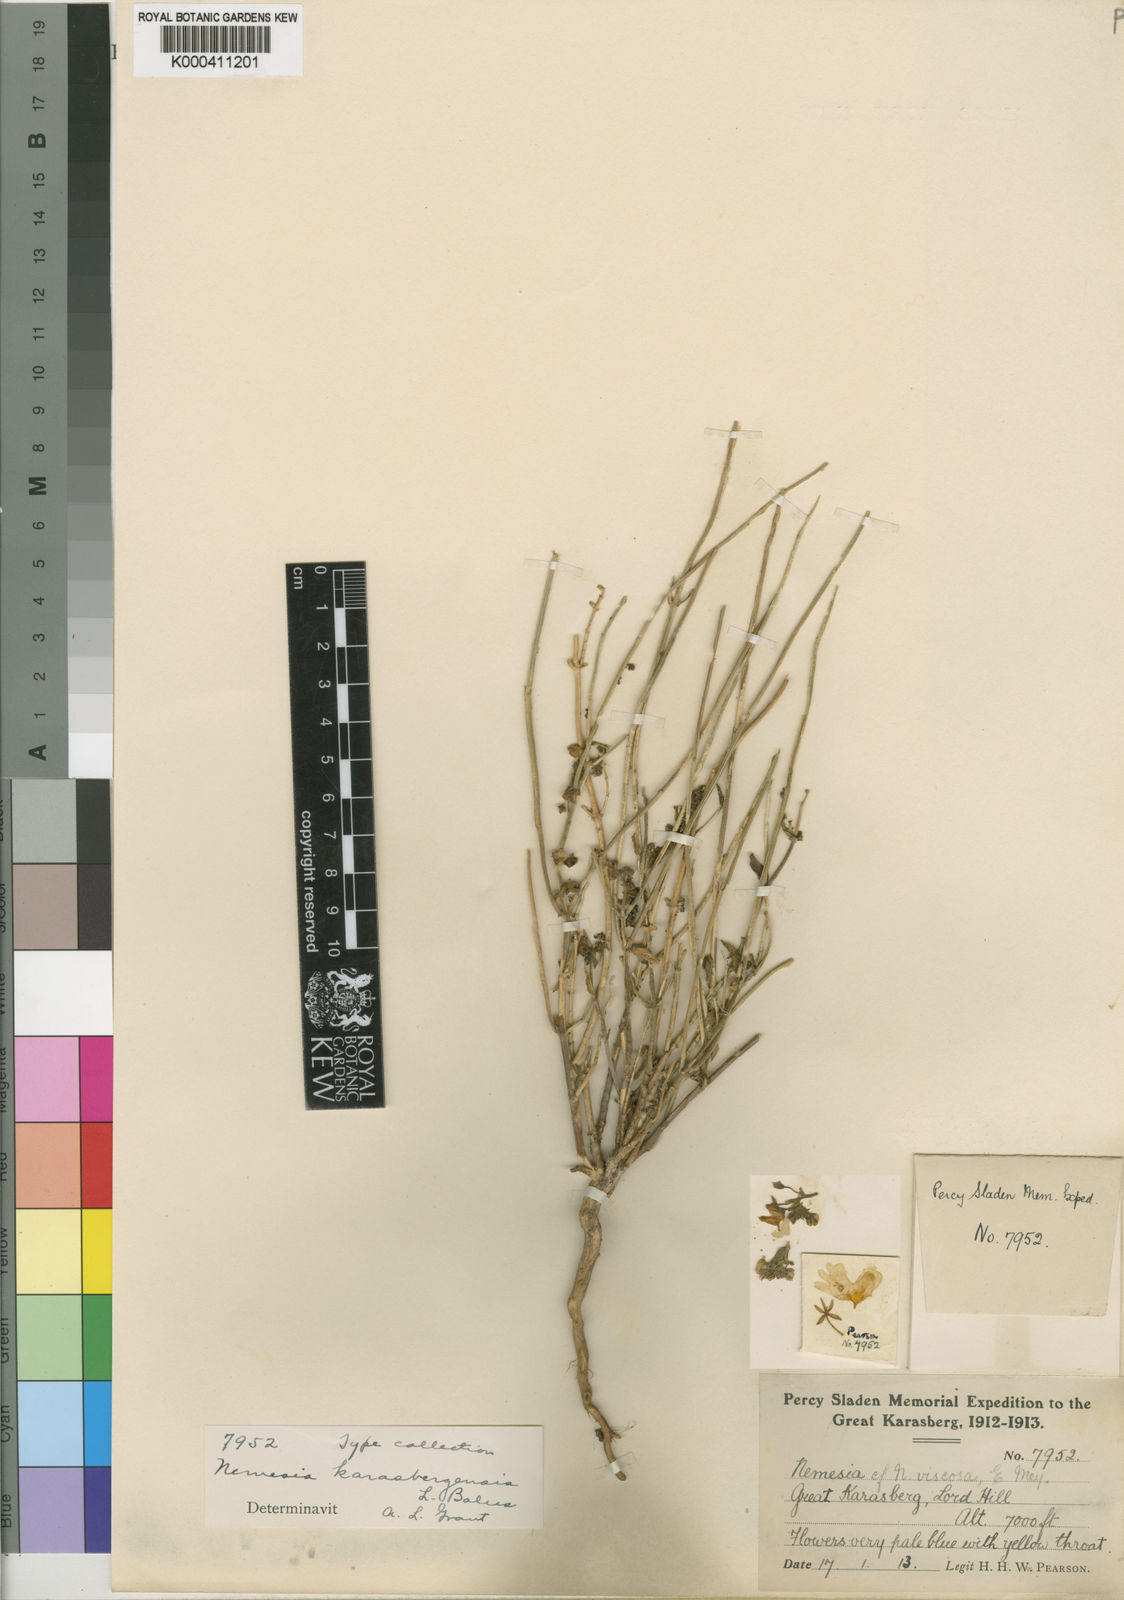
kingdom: Plantae
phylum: Tracheophyta
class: Magnoliopsida
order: Lamiales
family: Scrophulariaceae
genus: Nemesia
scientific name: Nemesia karasbergensis
